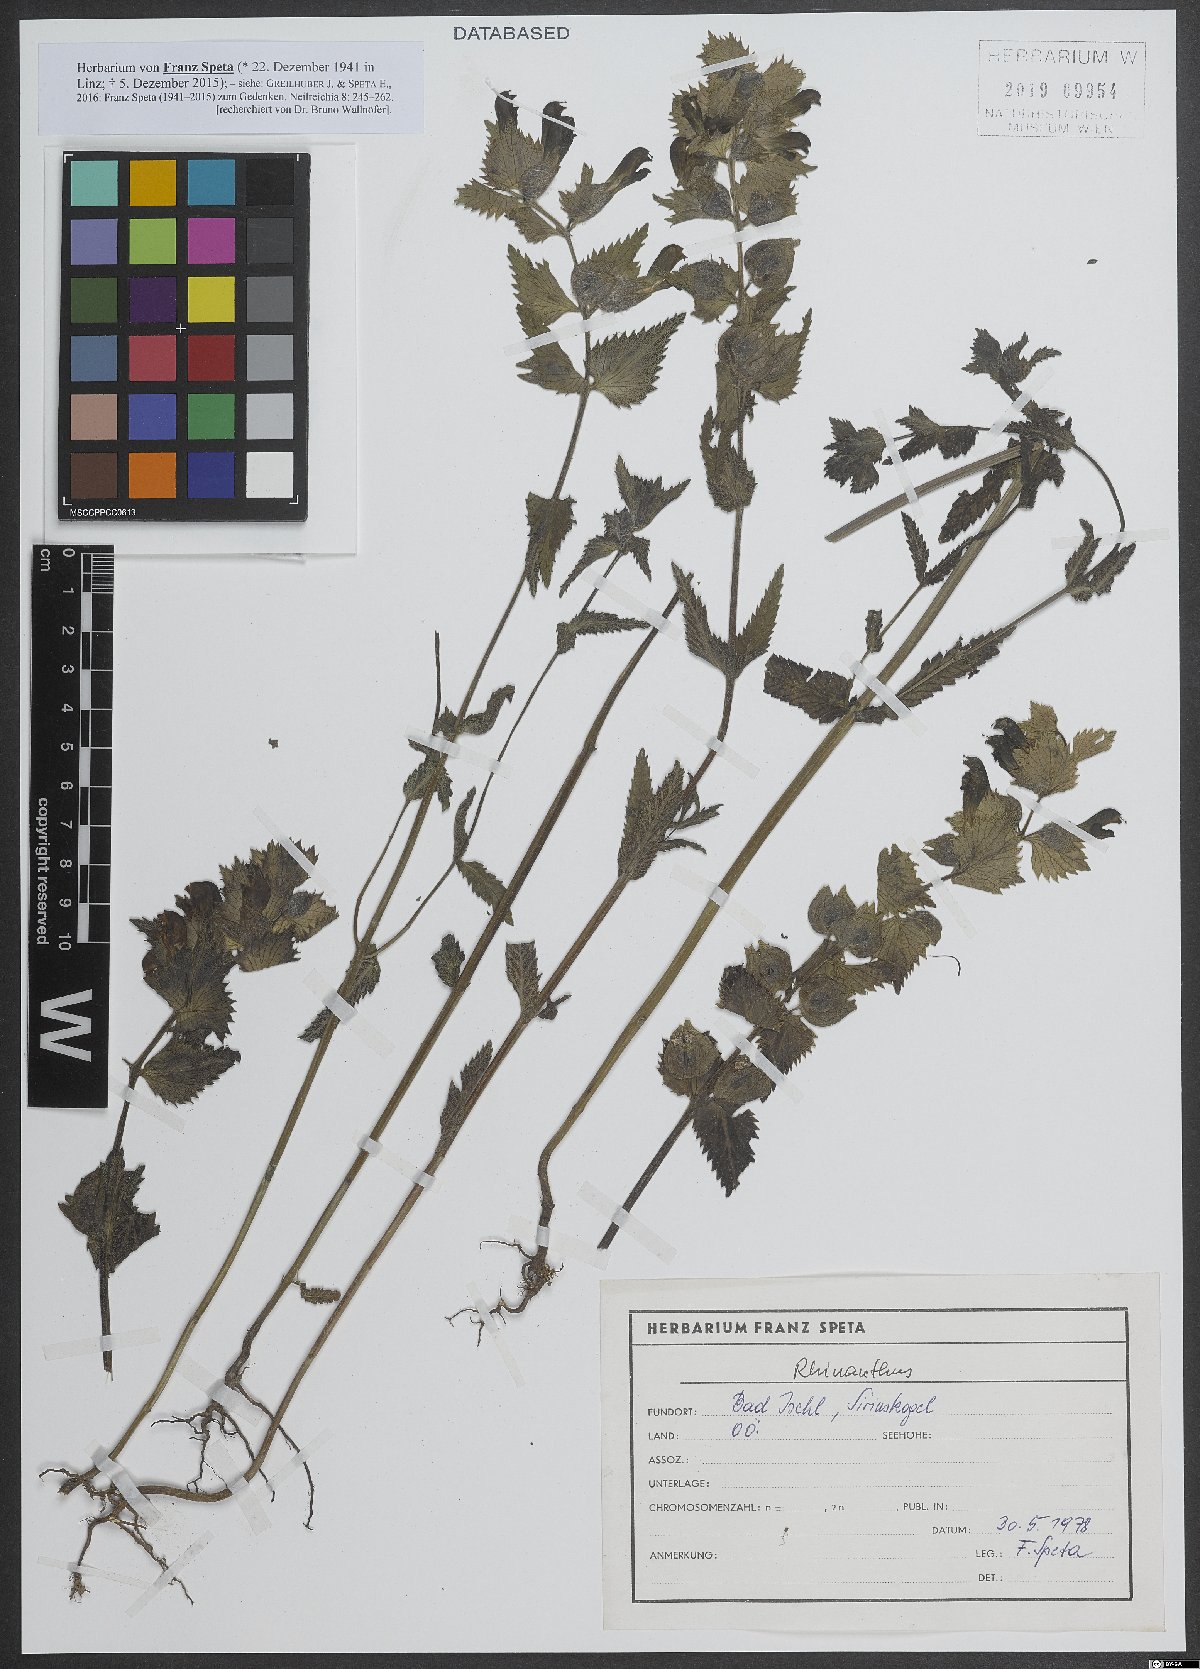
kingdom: Plantae
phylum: Tracheophyta
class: Magnoliopsida
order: Lamiales
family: Orobanchaceae
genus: Rhinanthus
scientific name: Rhinanthus
